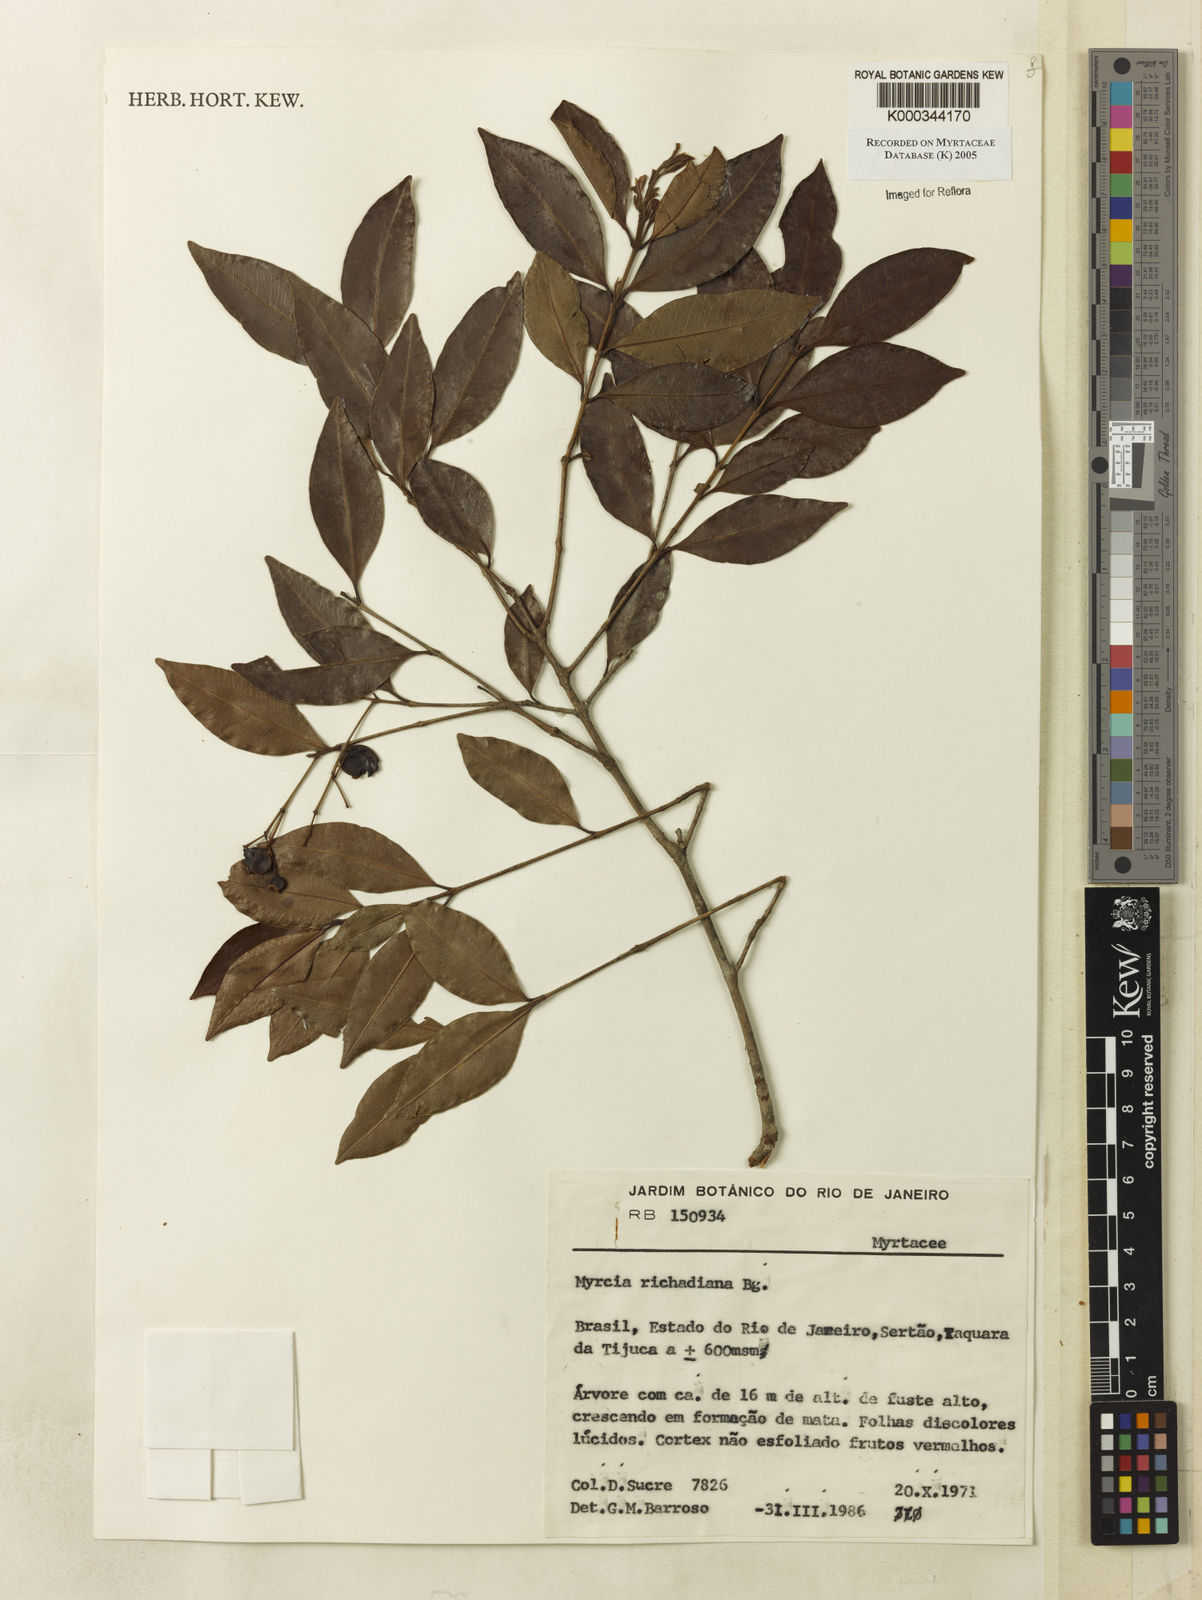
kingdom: Plantae
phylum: Tracheophyta
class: Magnoliopsida
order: Myrtales
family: Myrtaceae
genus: Myrcia
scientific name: Myrcia richardiana
